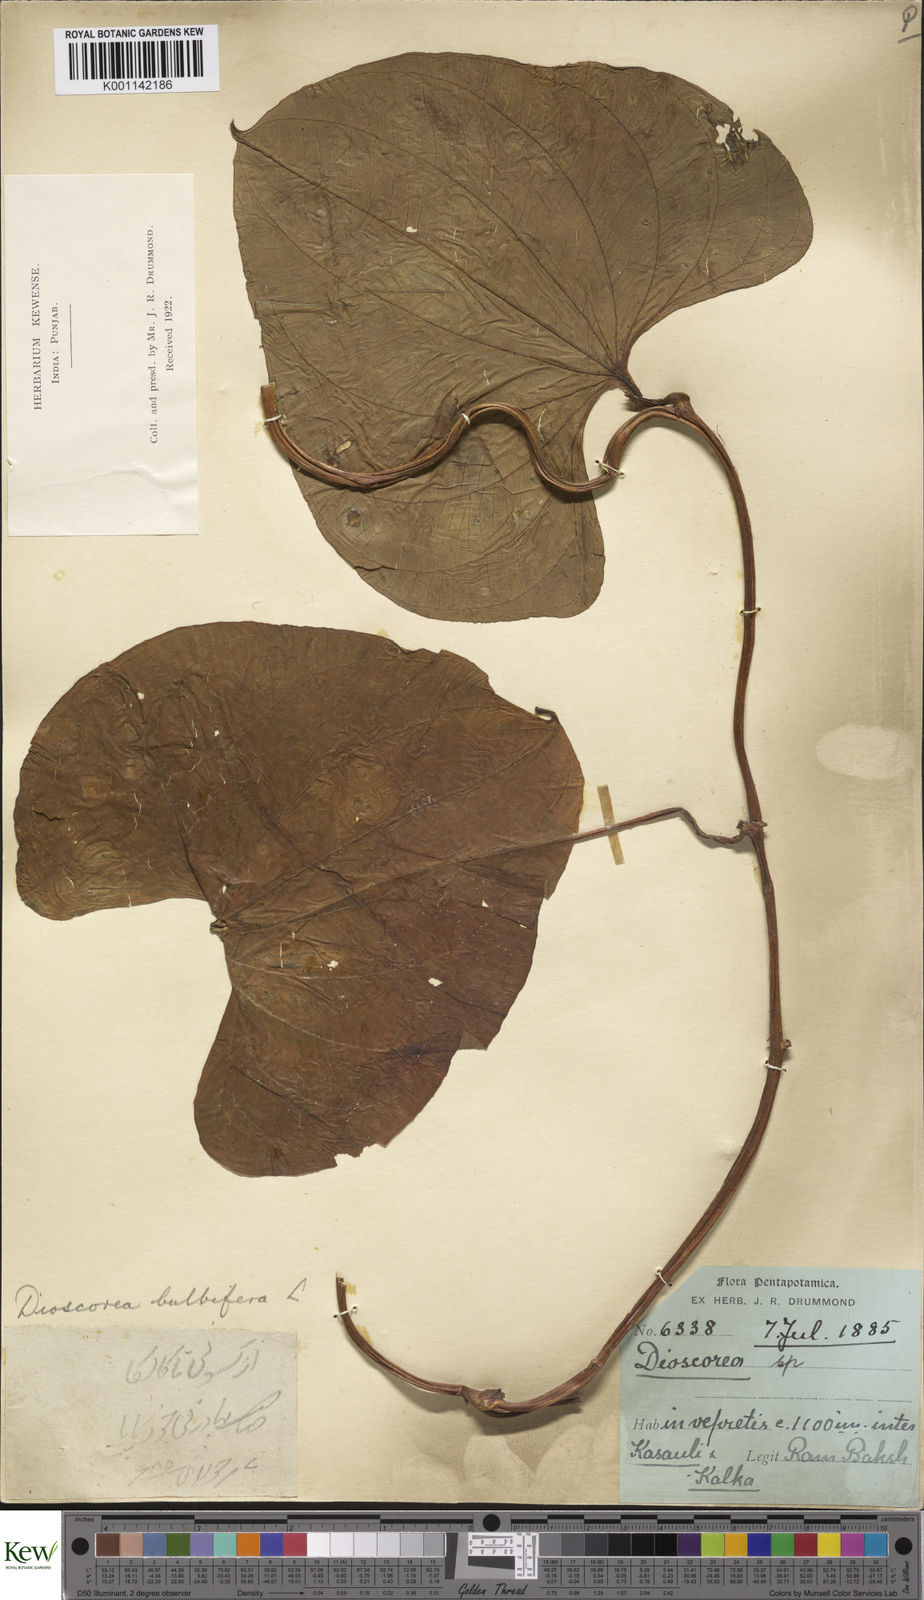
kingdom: Plantae
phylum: Tracheophyta
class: Liliopsida
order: Dioscoreales
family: Dioscoreaceae
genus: Dioscorea
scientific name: Dioscorea bulbifera
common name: Air yam
